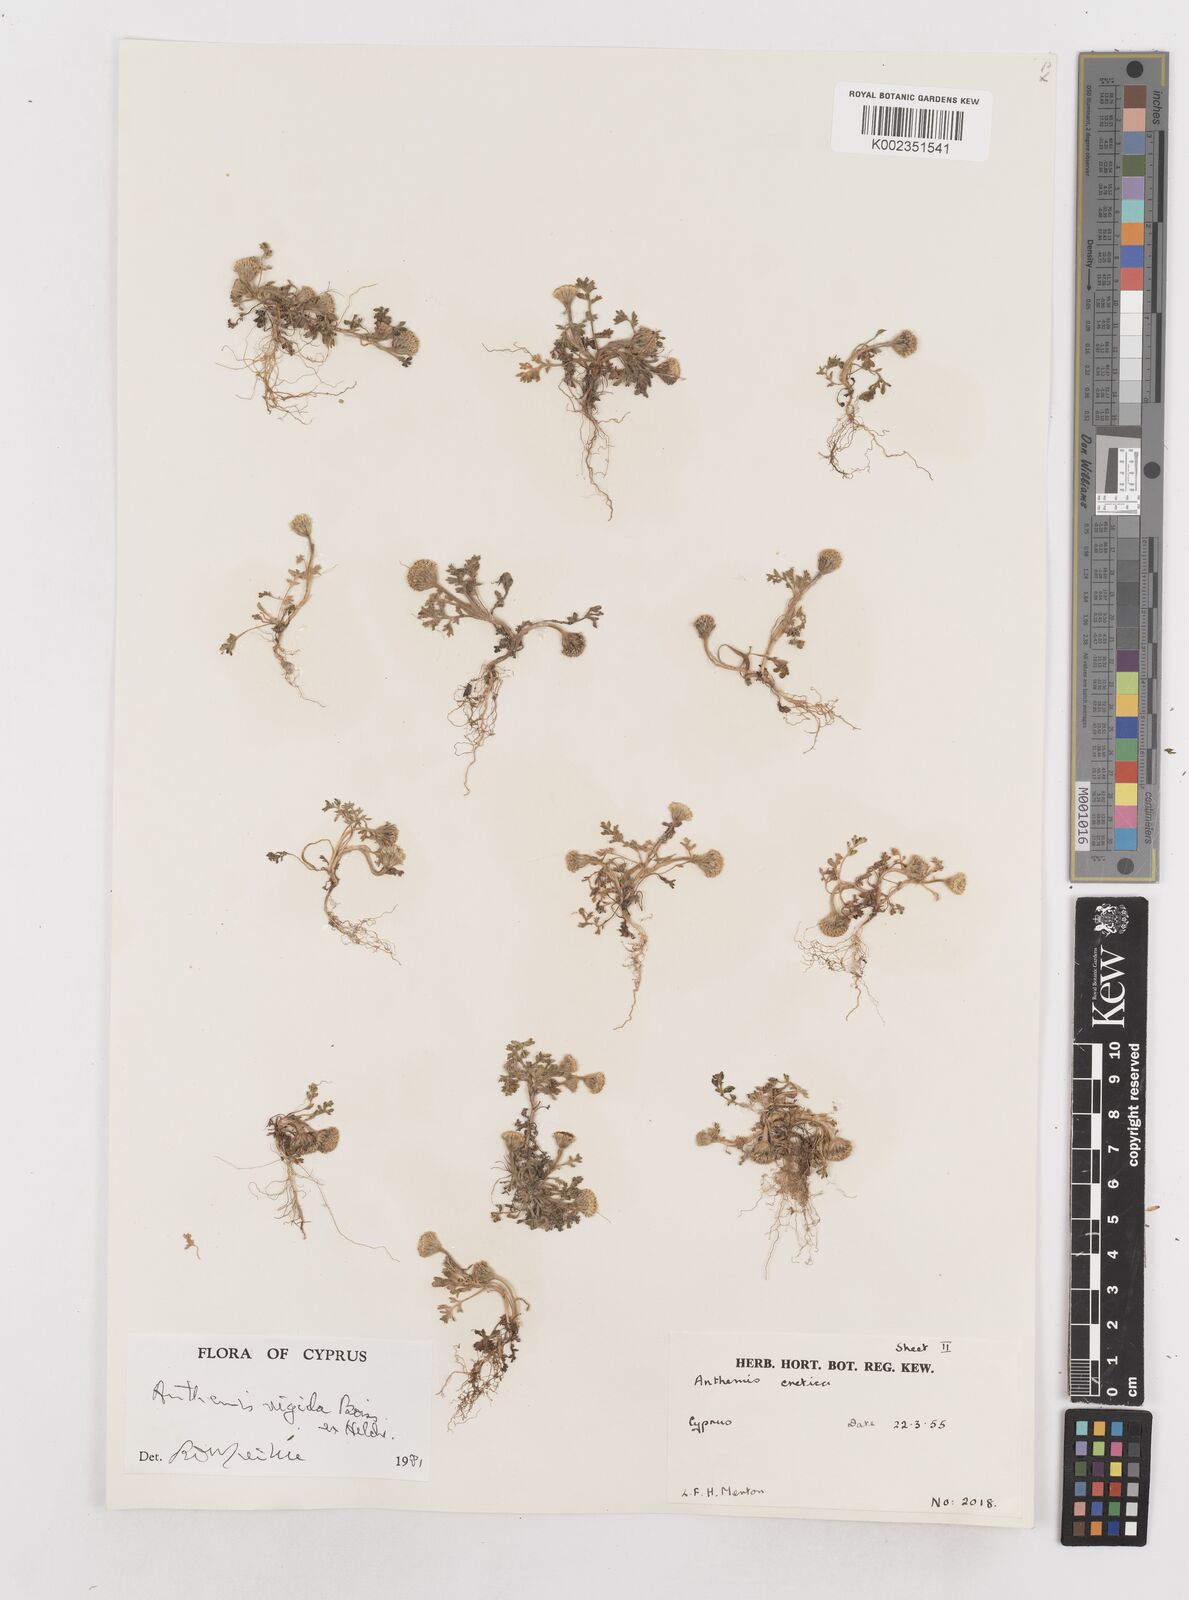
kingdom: Plantae
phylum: Tracheophyta
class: Magnoliopsida
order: Asterales
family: Asteraceae
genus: Anthemis
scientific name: Anthemis rigida
